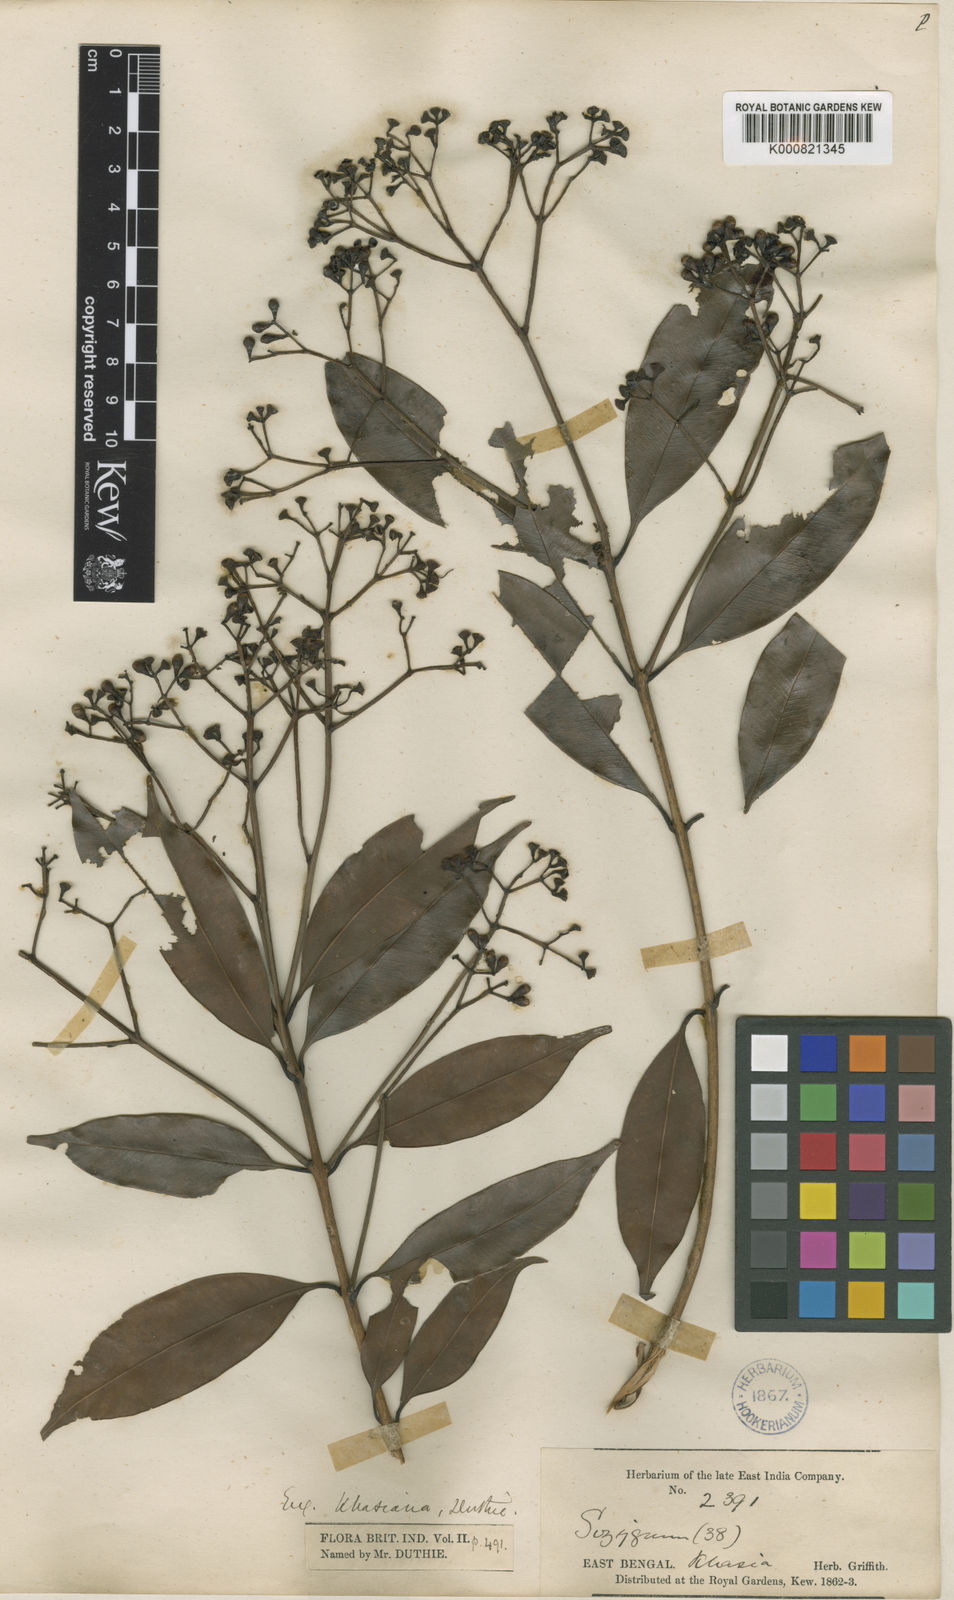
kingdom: Plantae
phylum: Tracheophyta
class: Magnoliopsida
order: Myrtales
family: Myrtaceae
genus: Syzygium
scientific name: Syzygium khasianum
